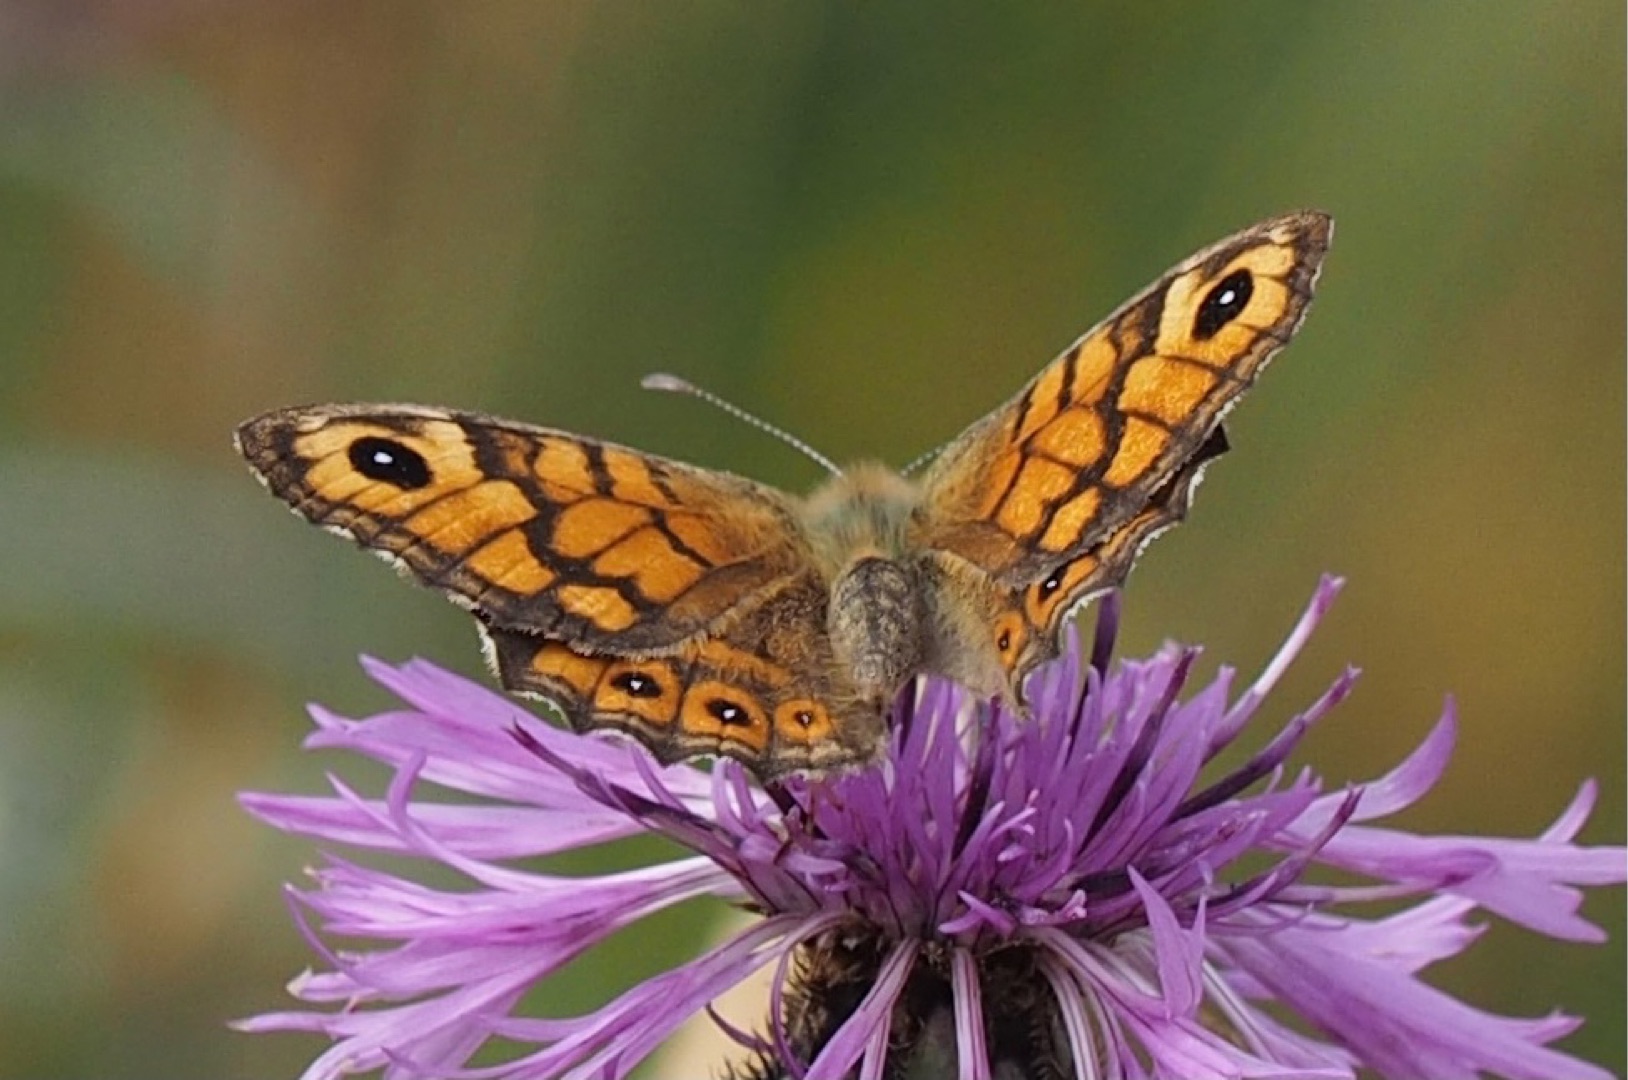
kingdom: Animalia
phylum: Arthropoda
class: Insecta
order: Lepidoptera
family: Nymphalidae
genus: Pararge
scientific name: Pararge Lasiommata megera
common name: Vejrandøje
